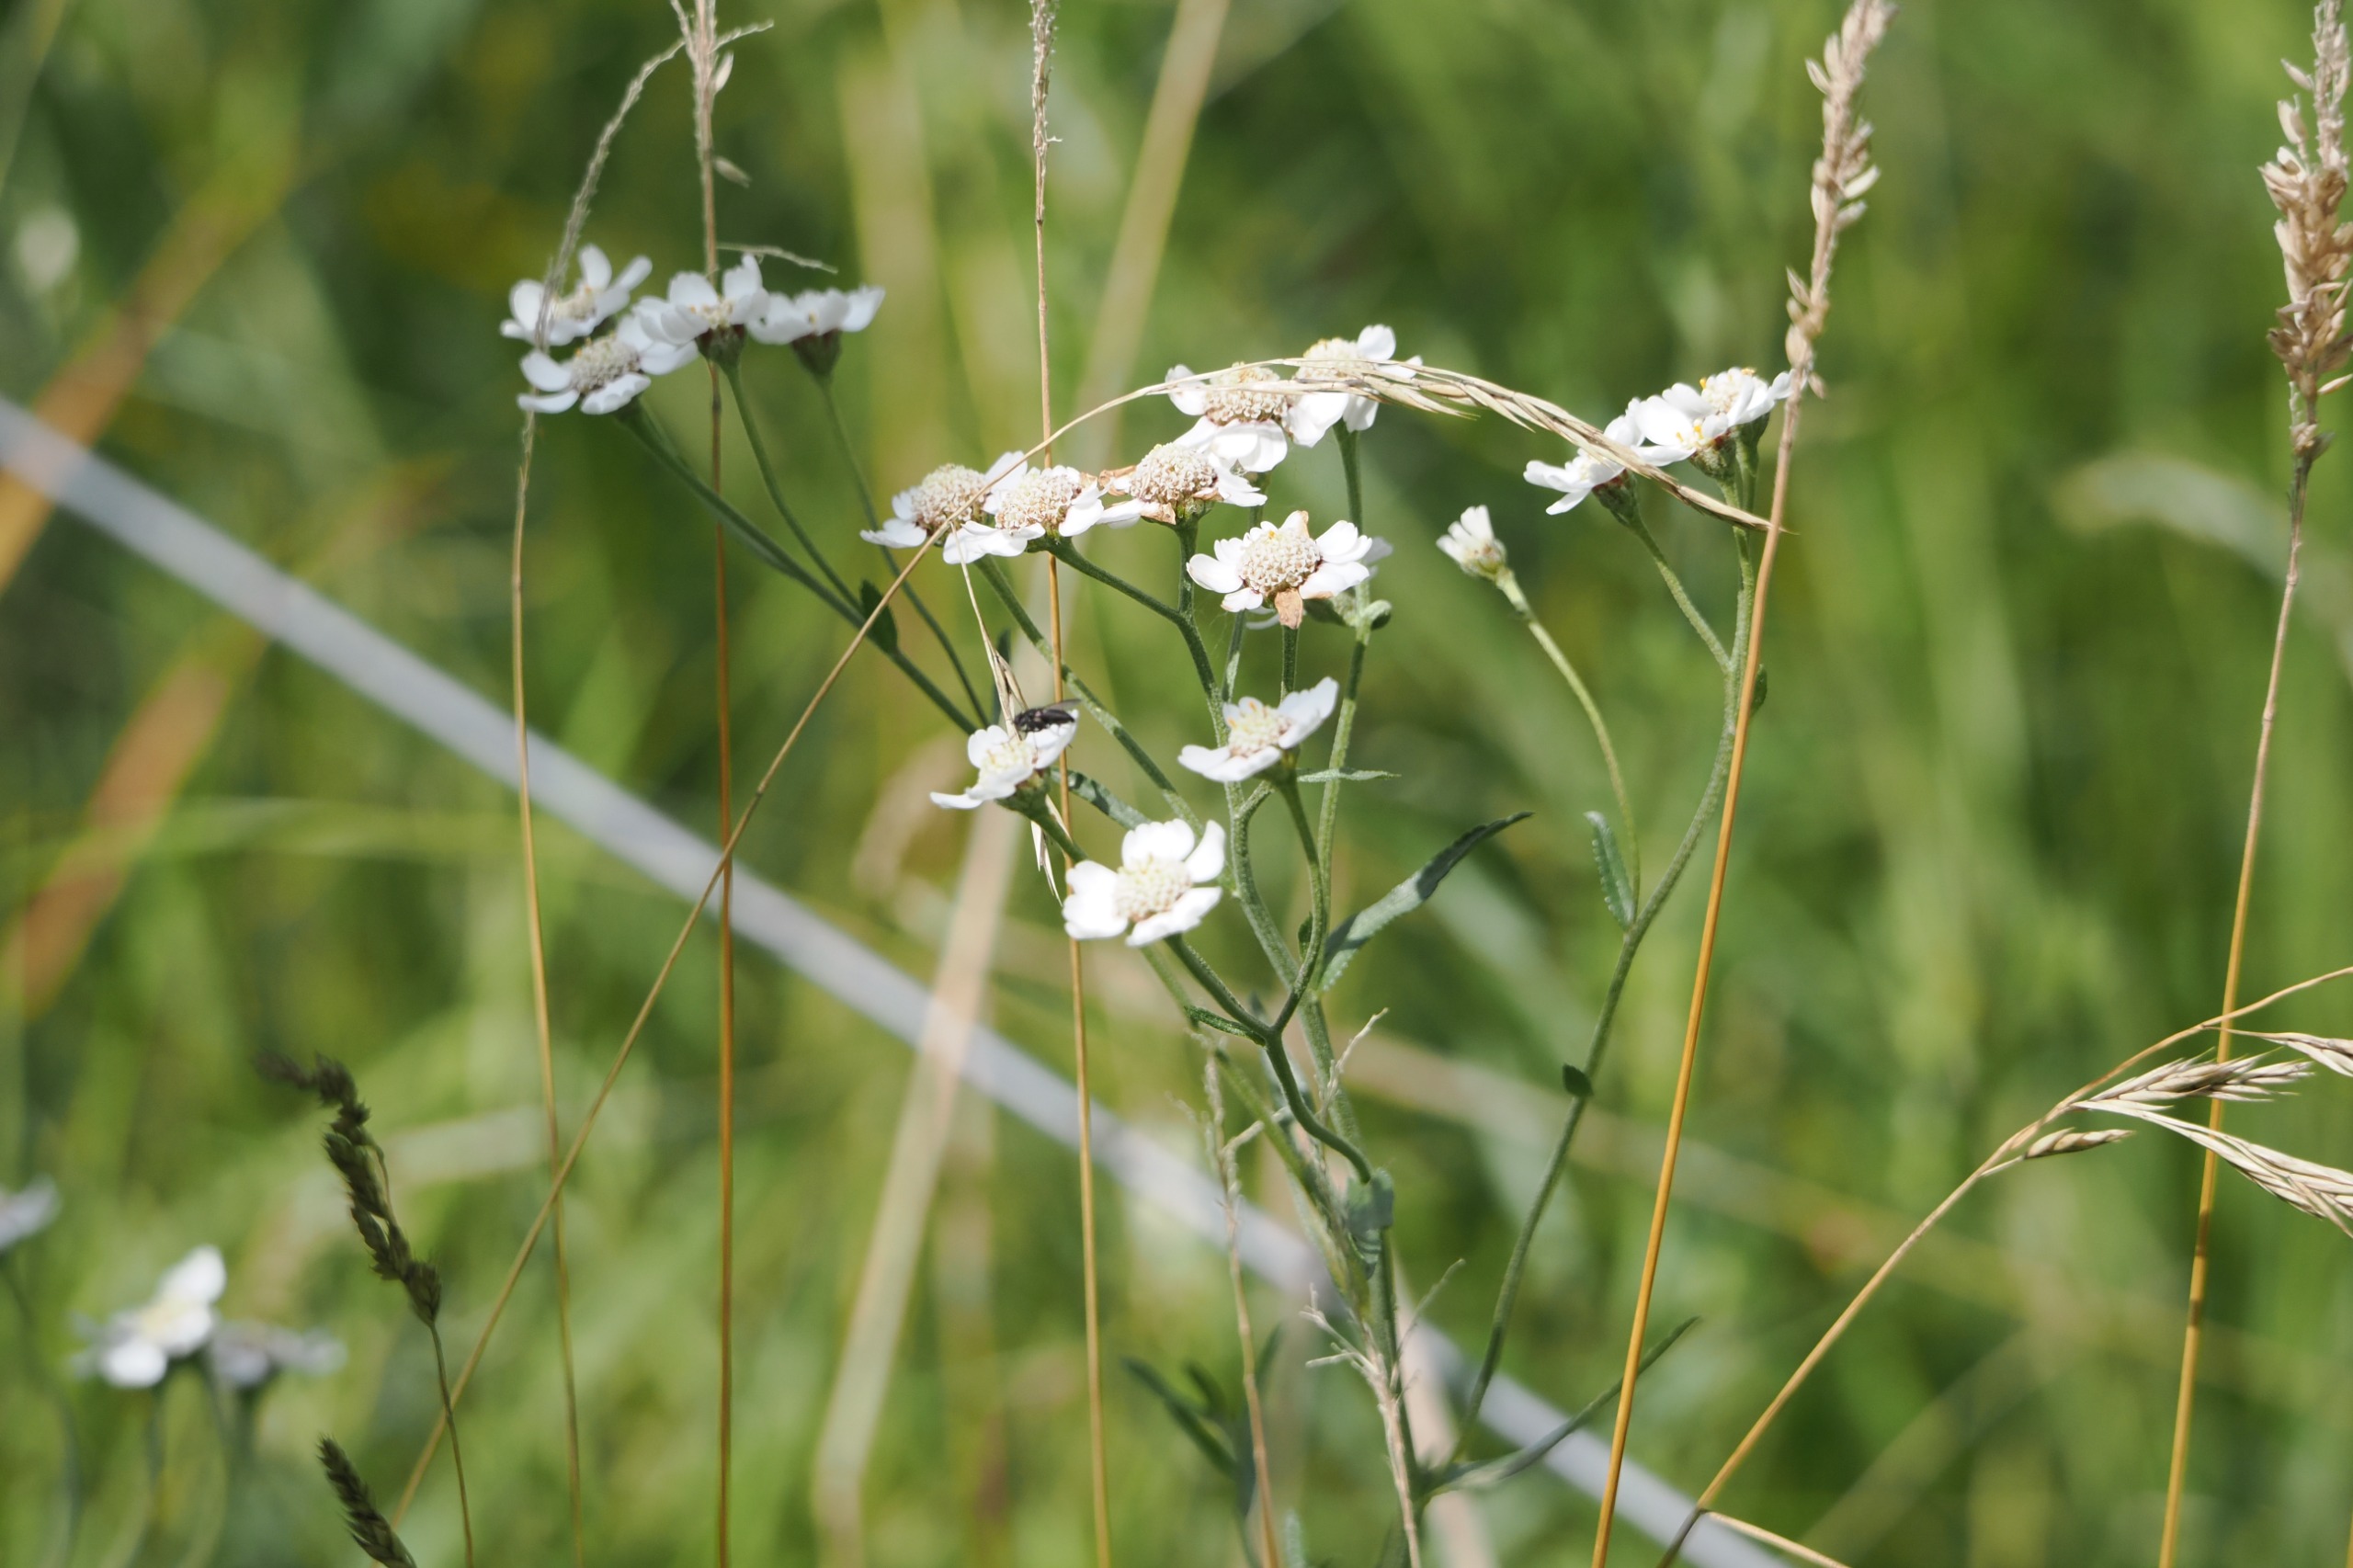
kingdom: Plantae
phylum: Tracheophyta
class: Magnoliopsida
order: Asterales
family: Asteraceae
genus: Achillea
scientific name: Achillea ptarmica
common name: Nyse-røllike
